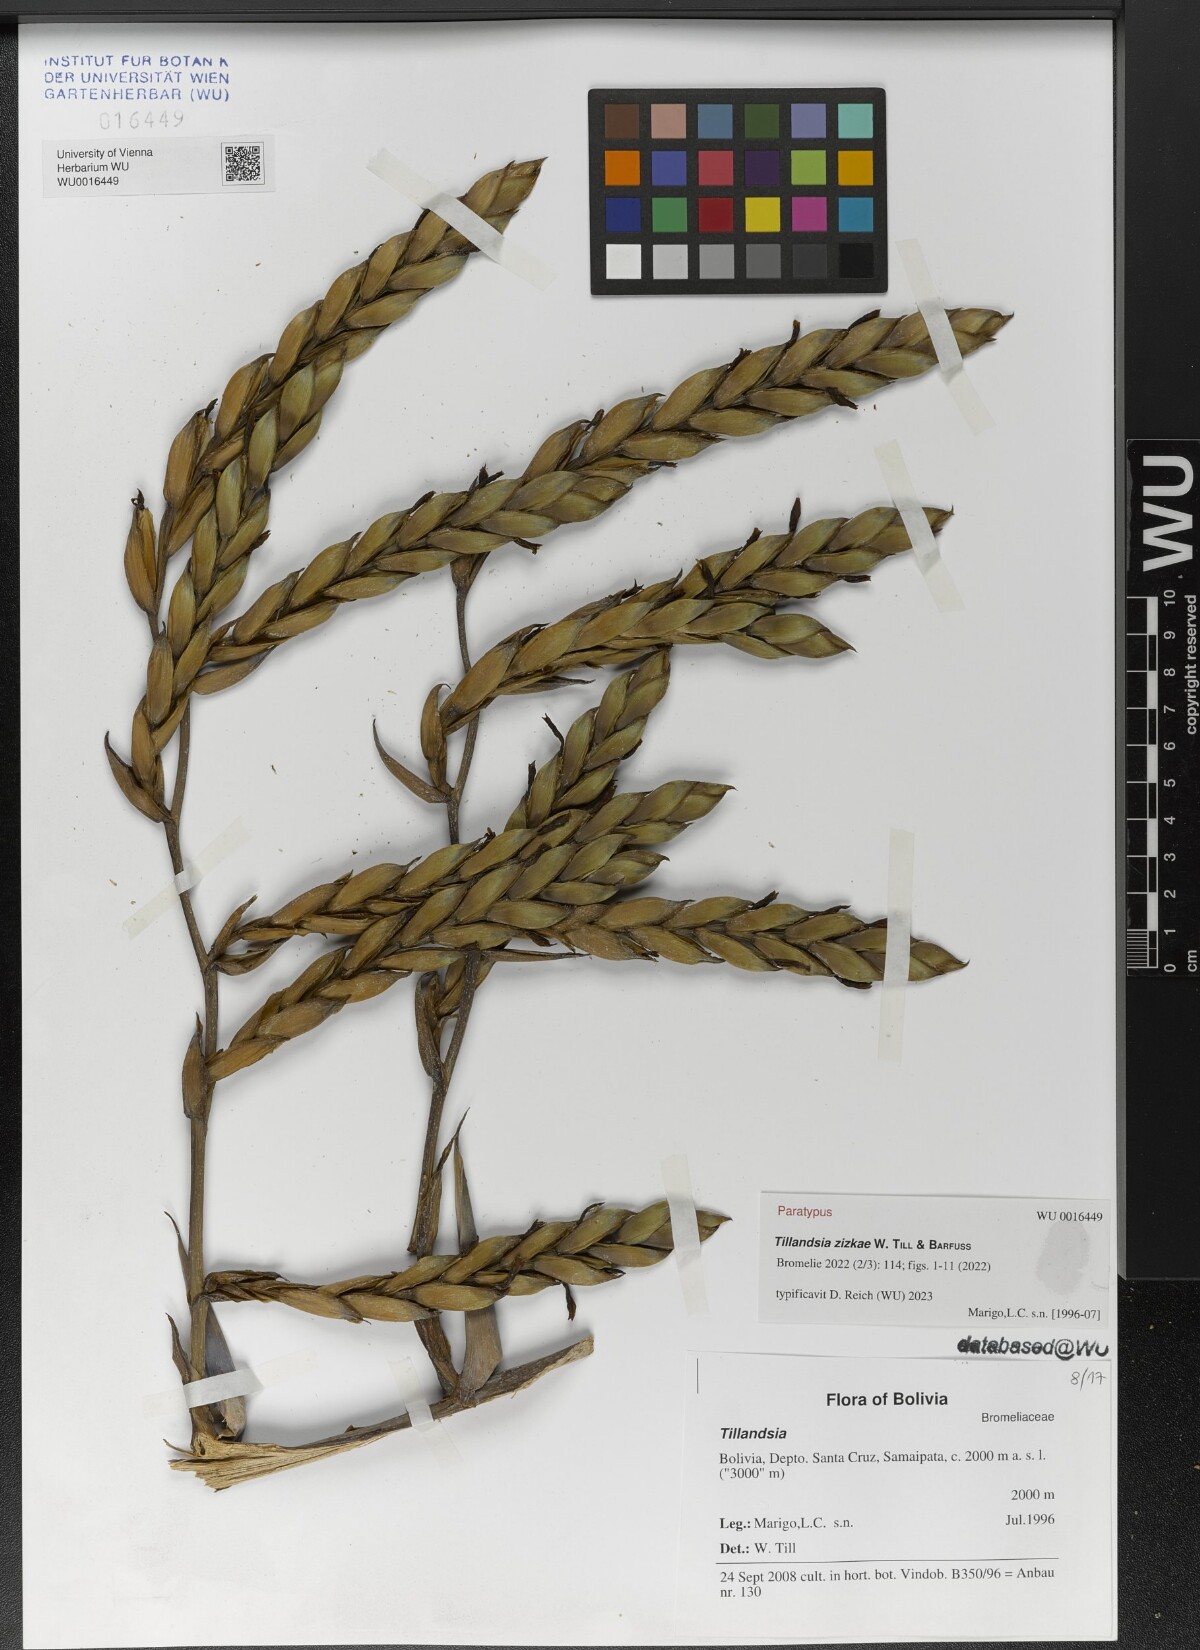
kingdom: Plantae
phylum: Tracheophyta
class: Liliopsida
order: Poales
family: Bromeliaceae
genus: Tillandsia
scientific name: Tillandsia
